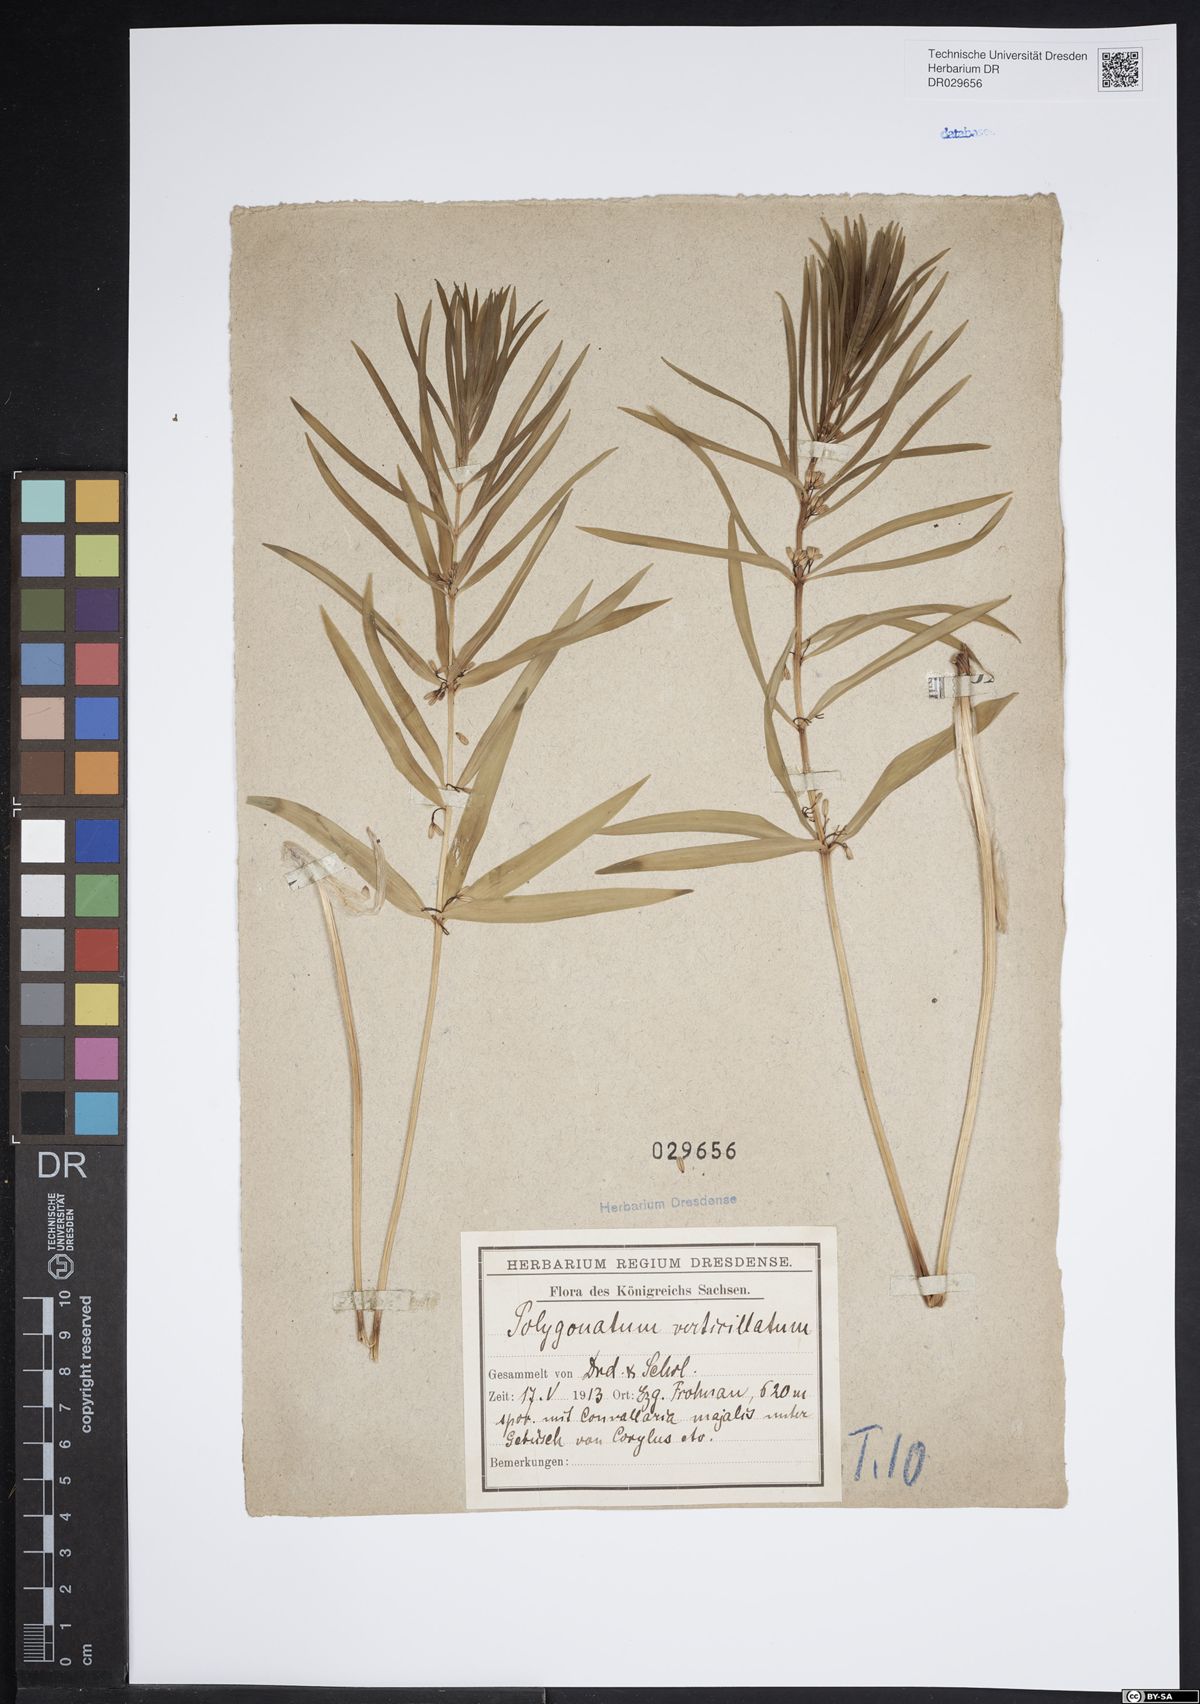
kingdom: Plantae
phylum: Tracheophyta
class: Liliopsida
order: Asparagales
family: Asparagaceae
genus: Polygonatum
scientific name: Polygonatum verticillatum
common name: Whorled solomon's-seal
